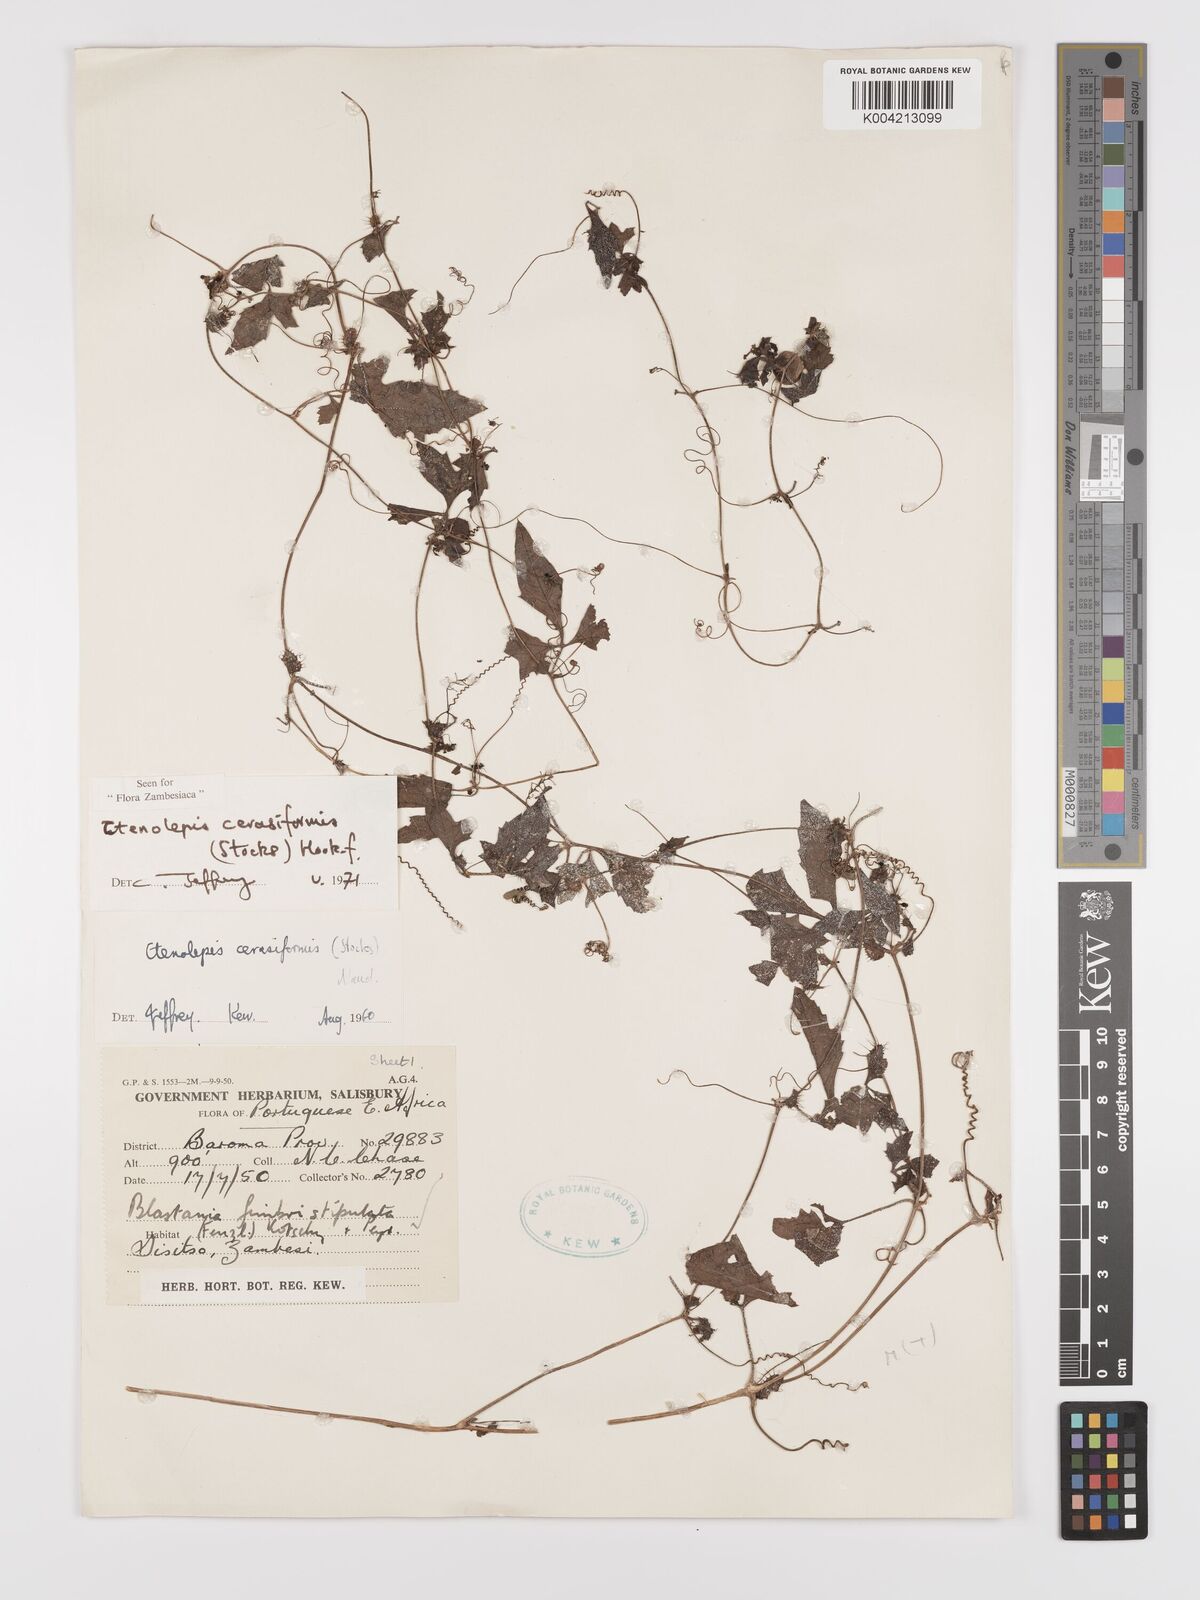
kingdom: Plantae
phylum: Tracheophyta
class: Magnoliopsida
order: Cucurbitales
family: Cucurbitaceae
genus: Blastania
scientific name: Blastania cerasiformis
